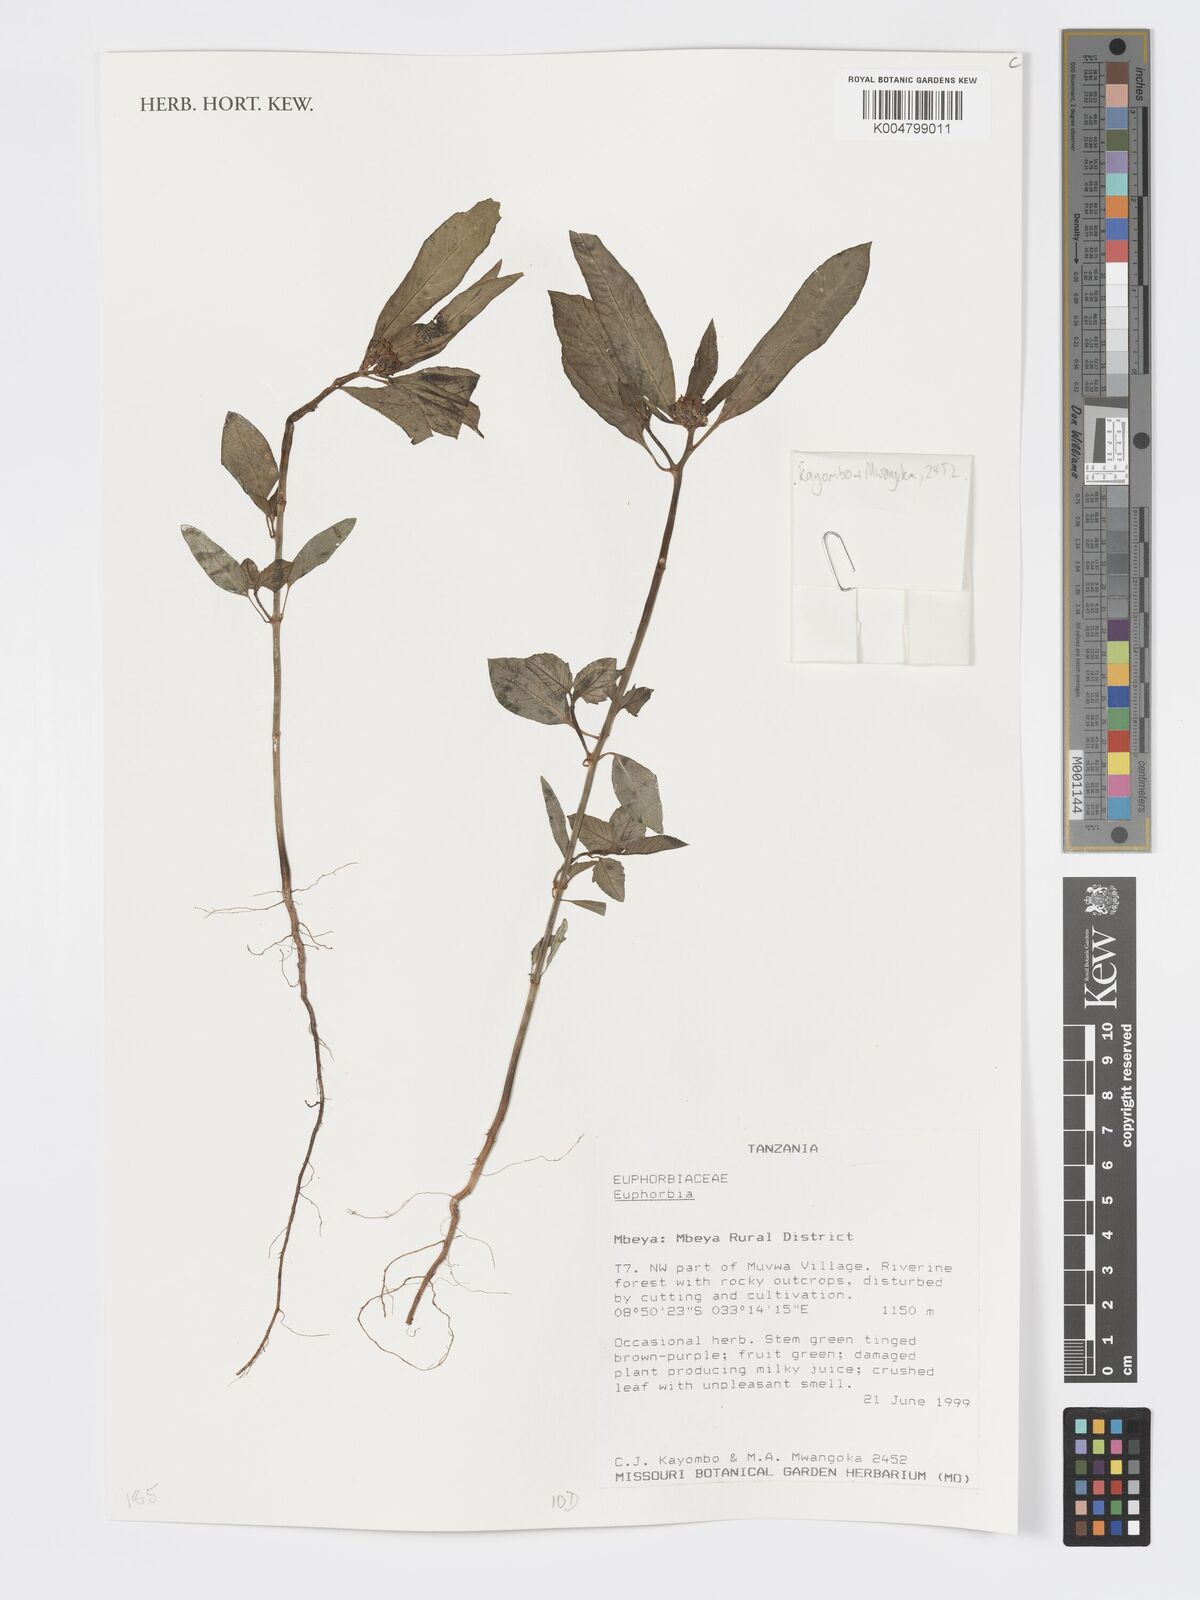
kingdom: Plantae
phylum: Tracheophyta
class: Magnoliopsida
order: Malpighiales
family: Euphorbiaceae
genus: Euphorbia
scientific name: Euphorbia
